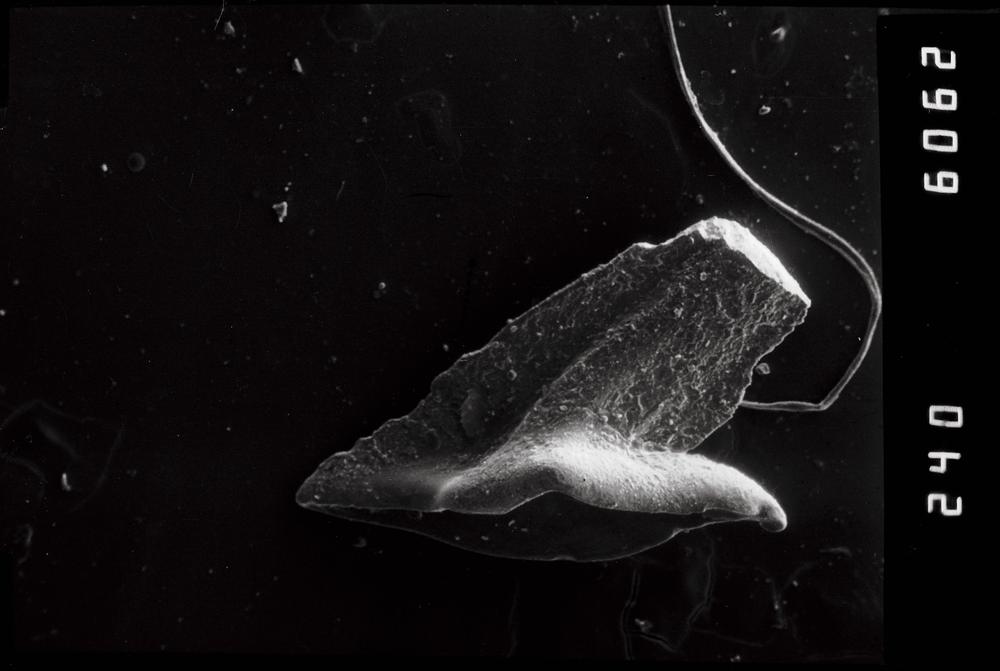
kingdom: Animalia
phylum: Chordata
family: Acodontidae
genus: Acodus
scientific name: Acodus
